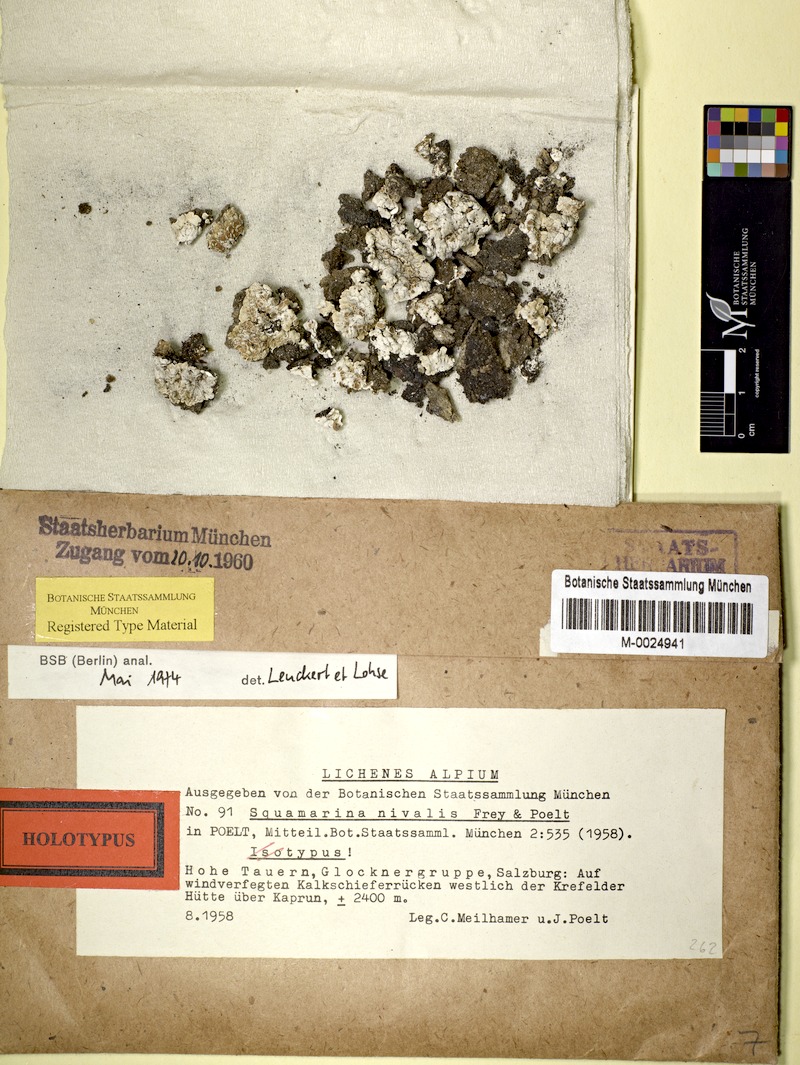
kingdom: Fungi
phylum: Ascomycota
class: Lecanoromycetes
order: Lecanorales
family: Stereocaulaceae
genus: Squamarina
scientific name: Squamarina lentigera
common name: Scaly breck-lichen
